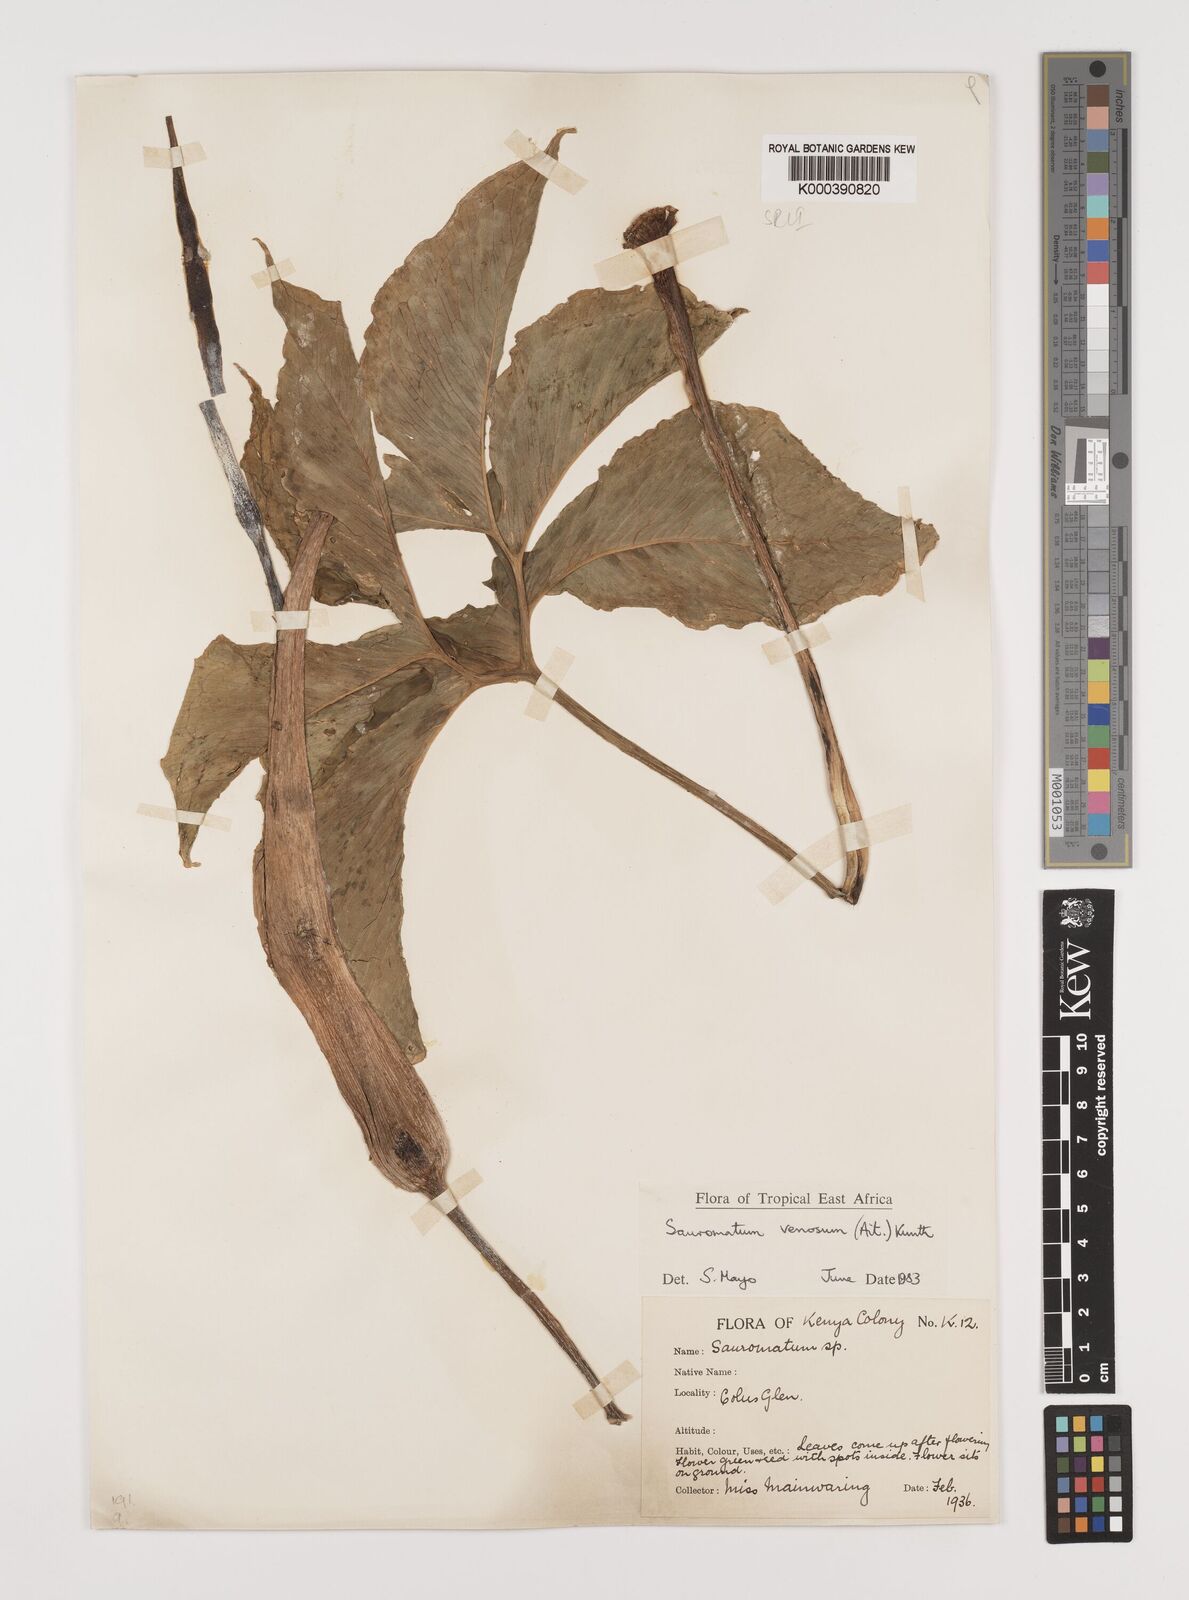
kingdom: Plantae
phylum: Tracheophyta
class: Liliopsida
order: Alismatales
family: Araceae
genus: Sauromatum
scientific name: Sauromatum venosum
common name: Voodoo lily
